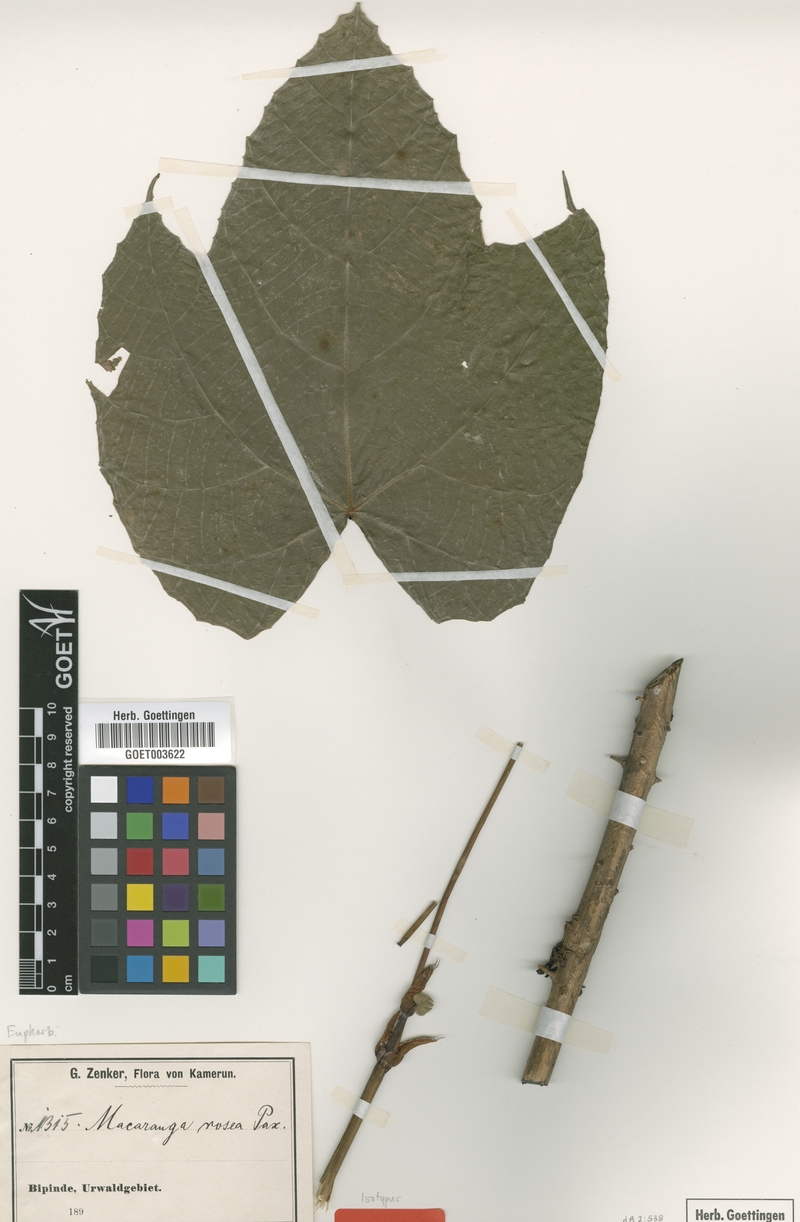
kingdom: Plantae
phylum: Tracheophyta
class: Magnoliopsida
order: Malpighiales
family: Euphorbiaceae
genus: Macaranga
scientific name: Macaranga schweinfurthii
